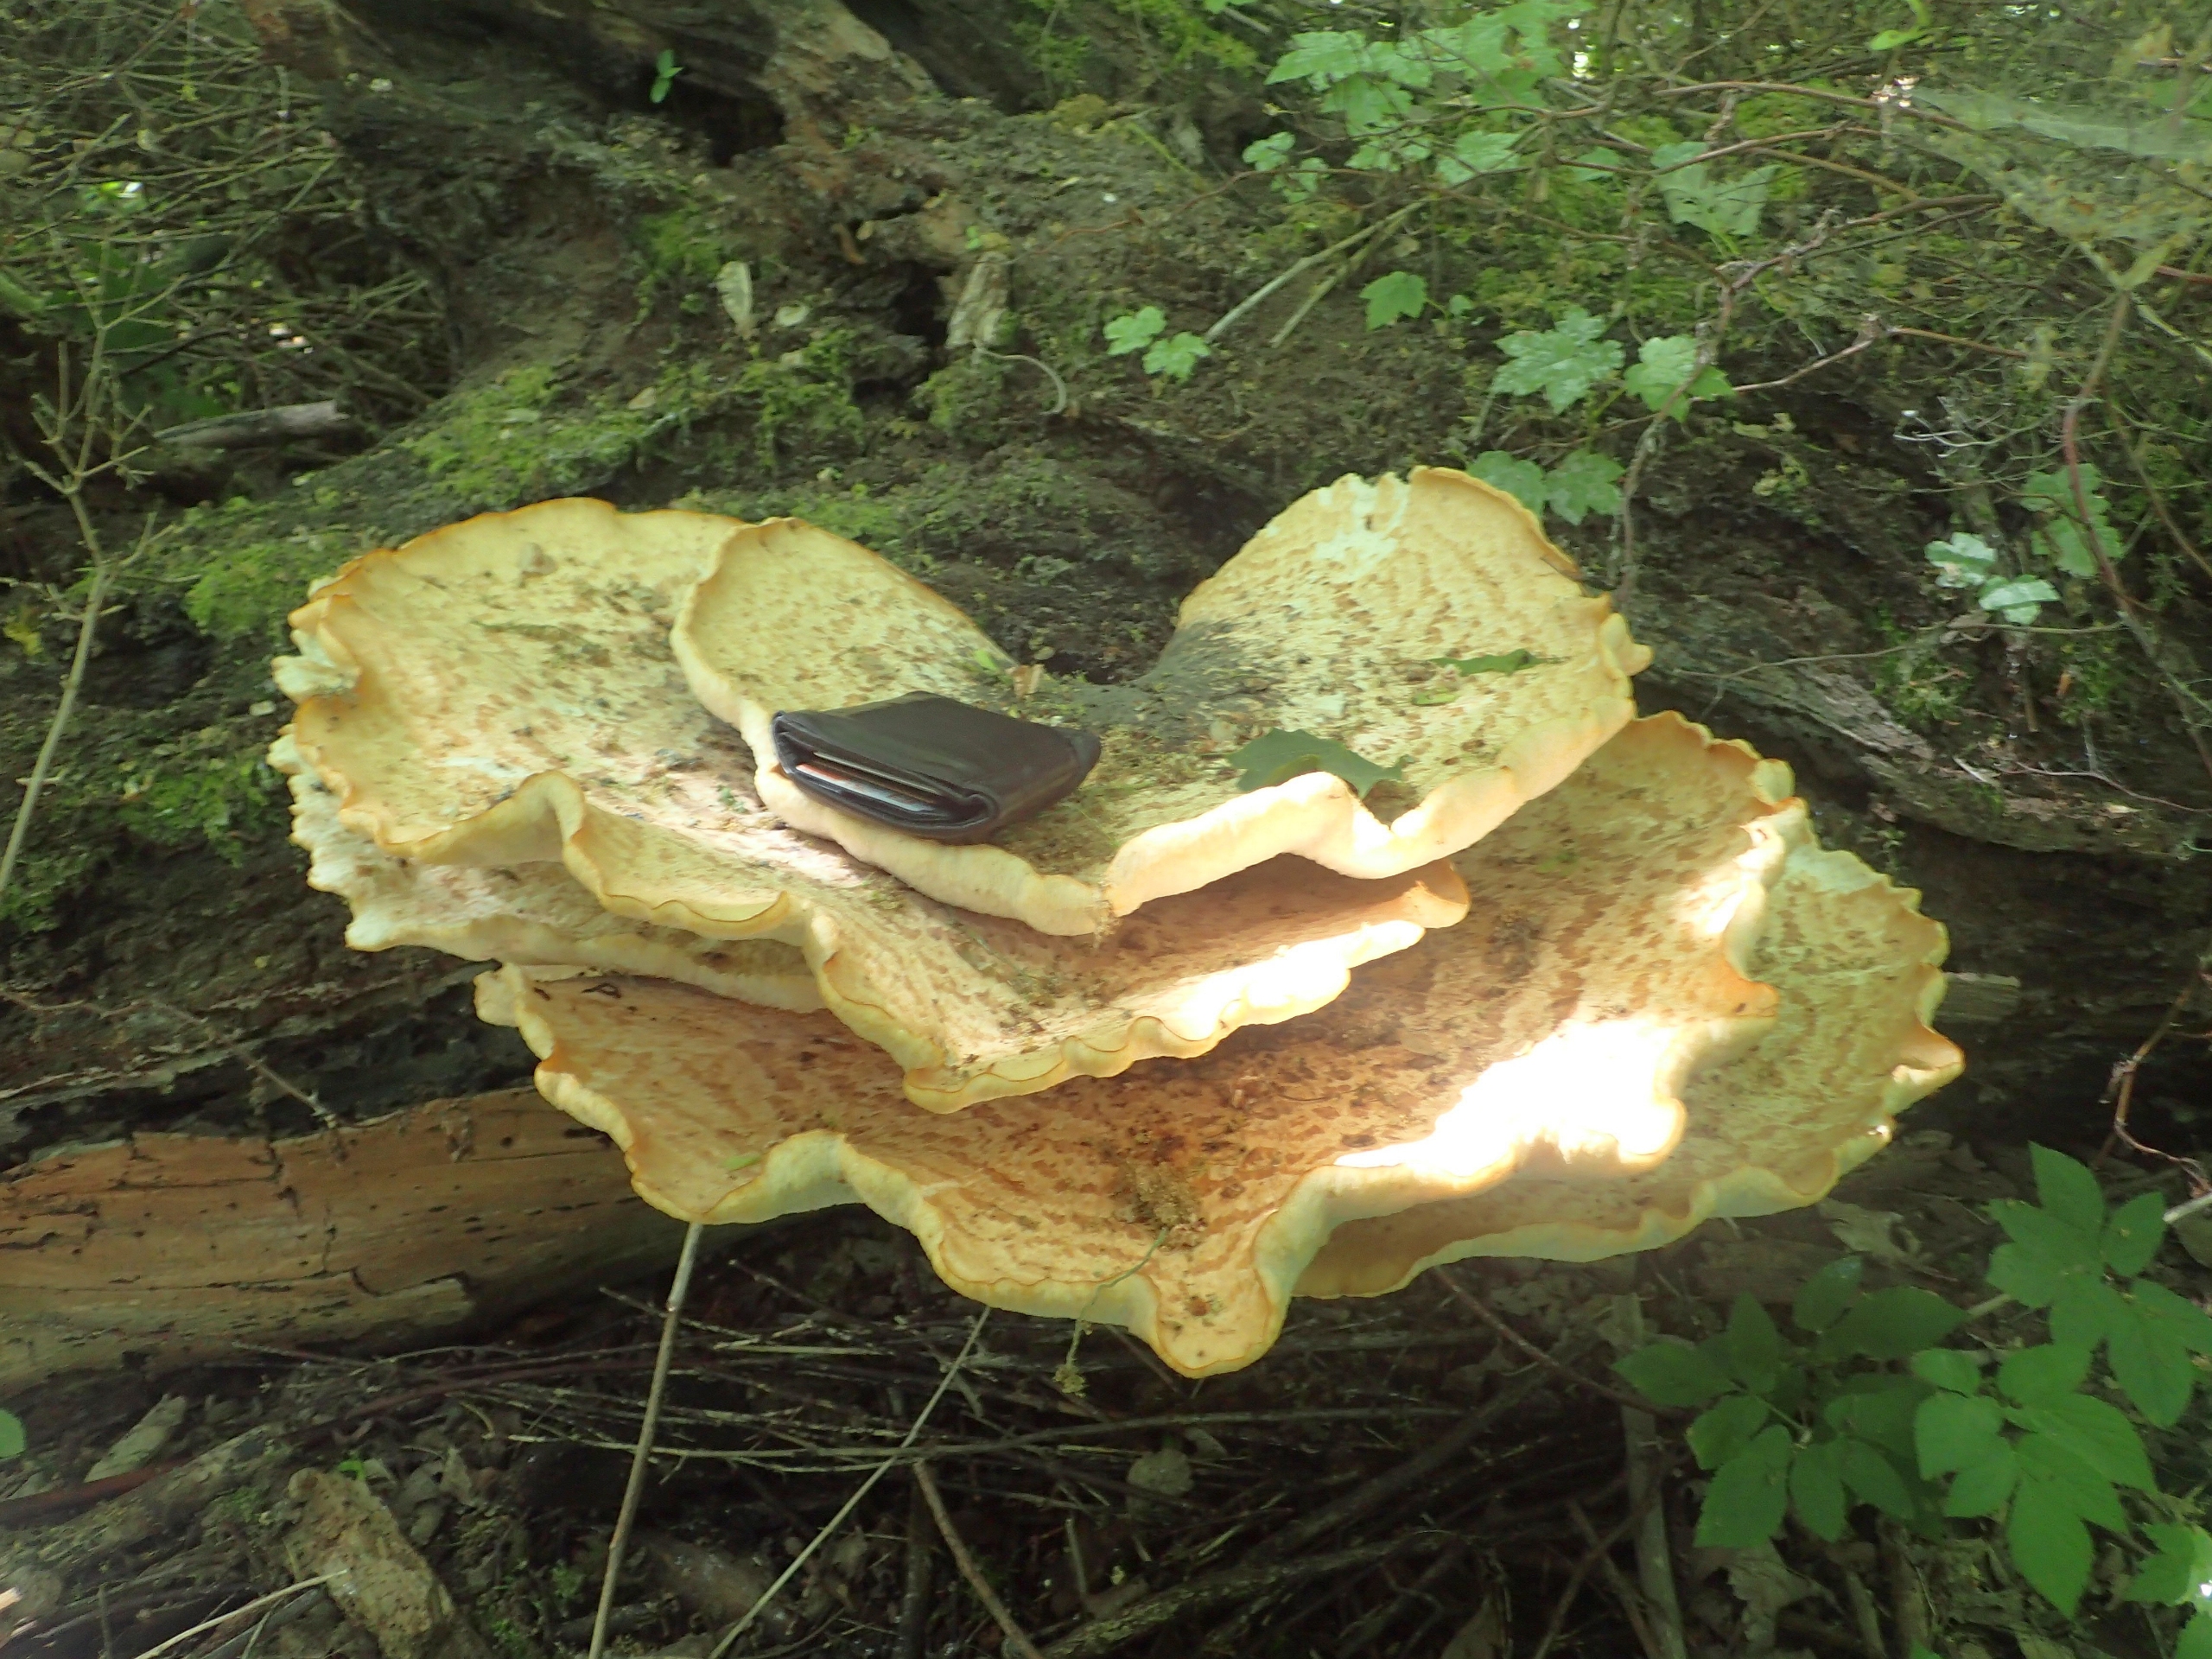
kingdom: Fungi
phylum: Basidiomycota
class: Agaricomycetes
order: Polyporales
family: Polyporaceae
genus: Cerioporus
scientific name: Cerioporus squamosus
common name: Skællet stilkporesvamp
